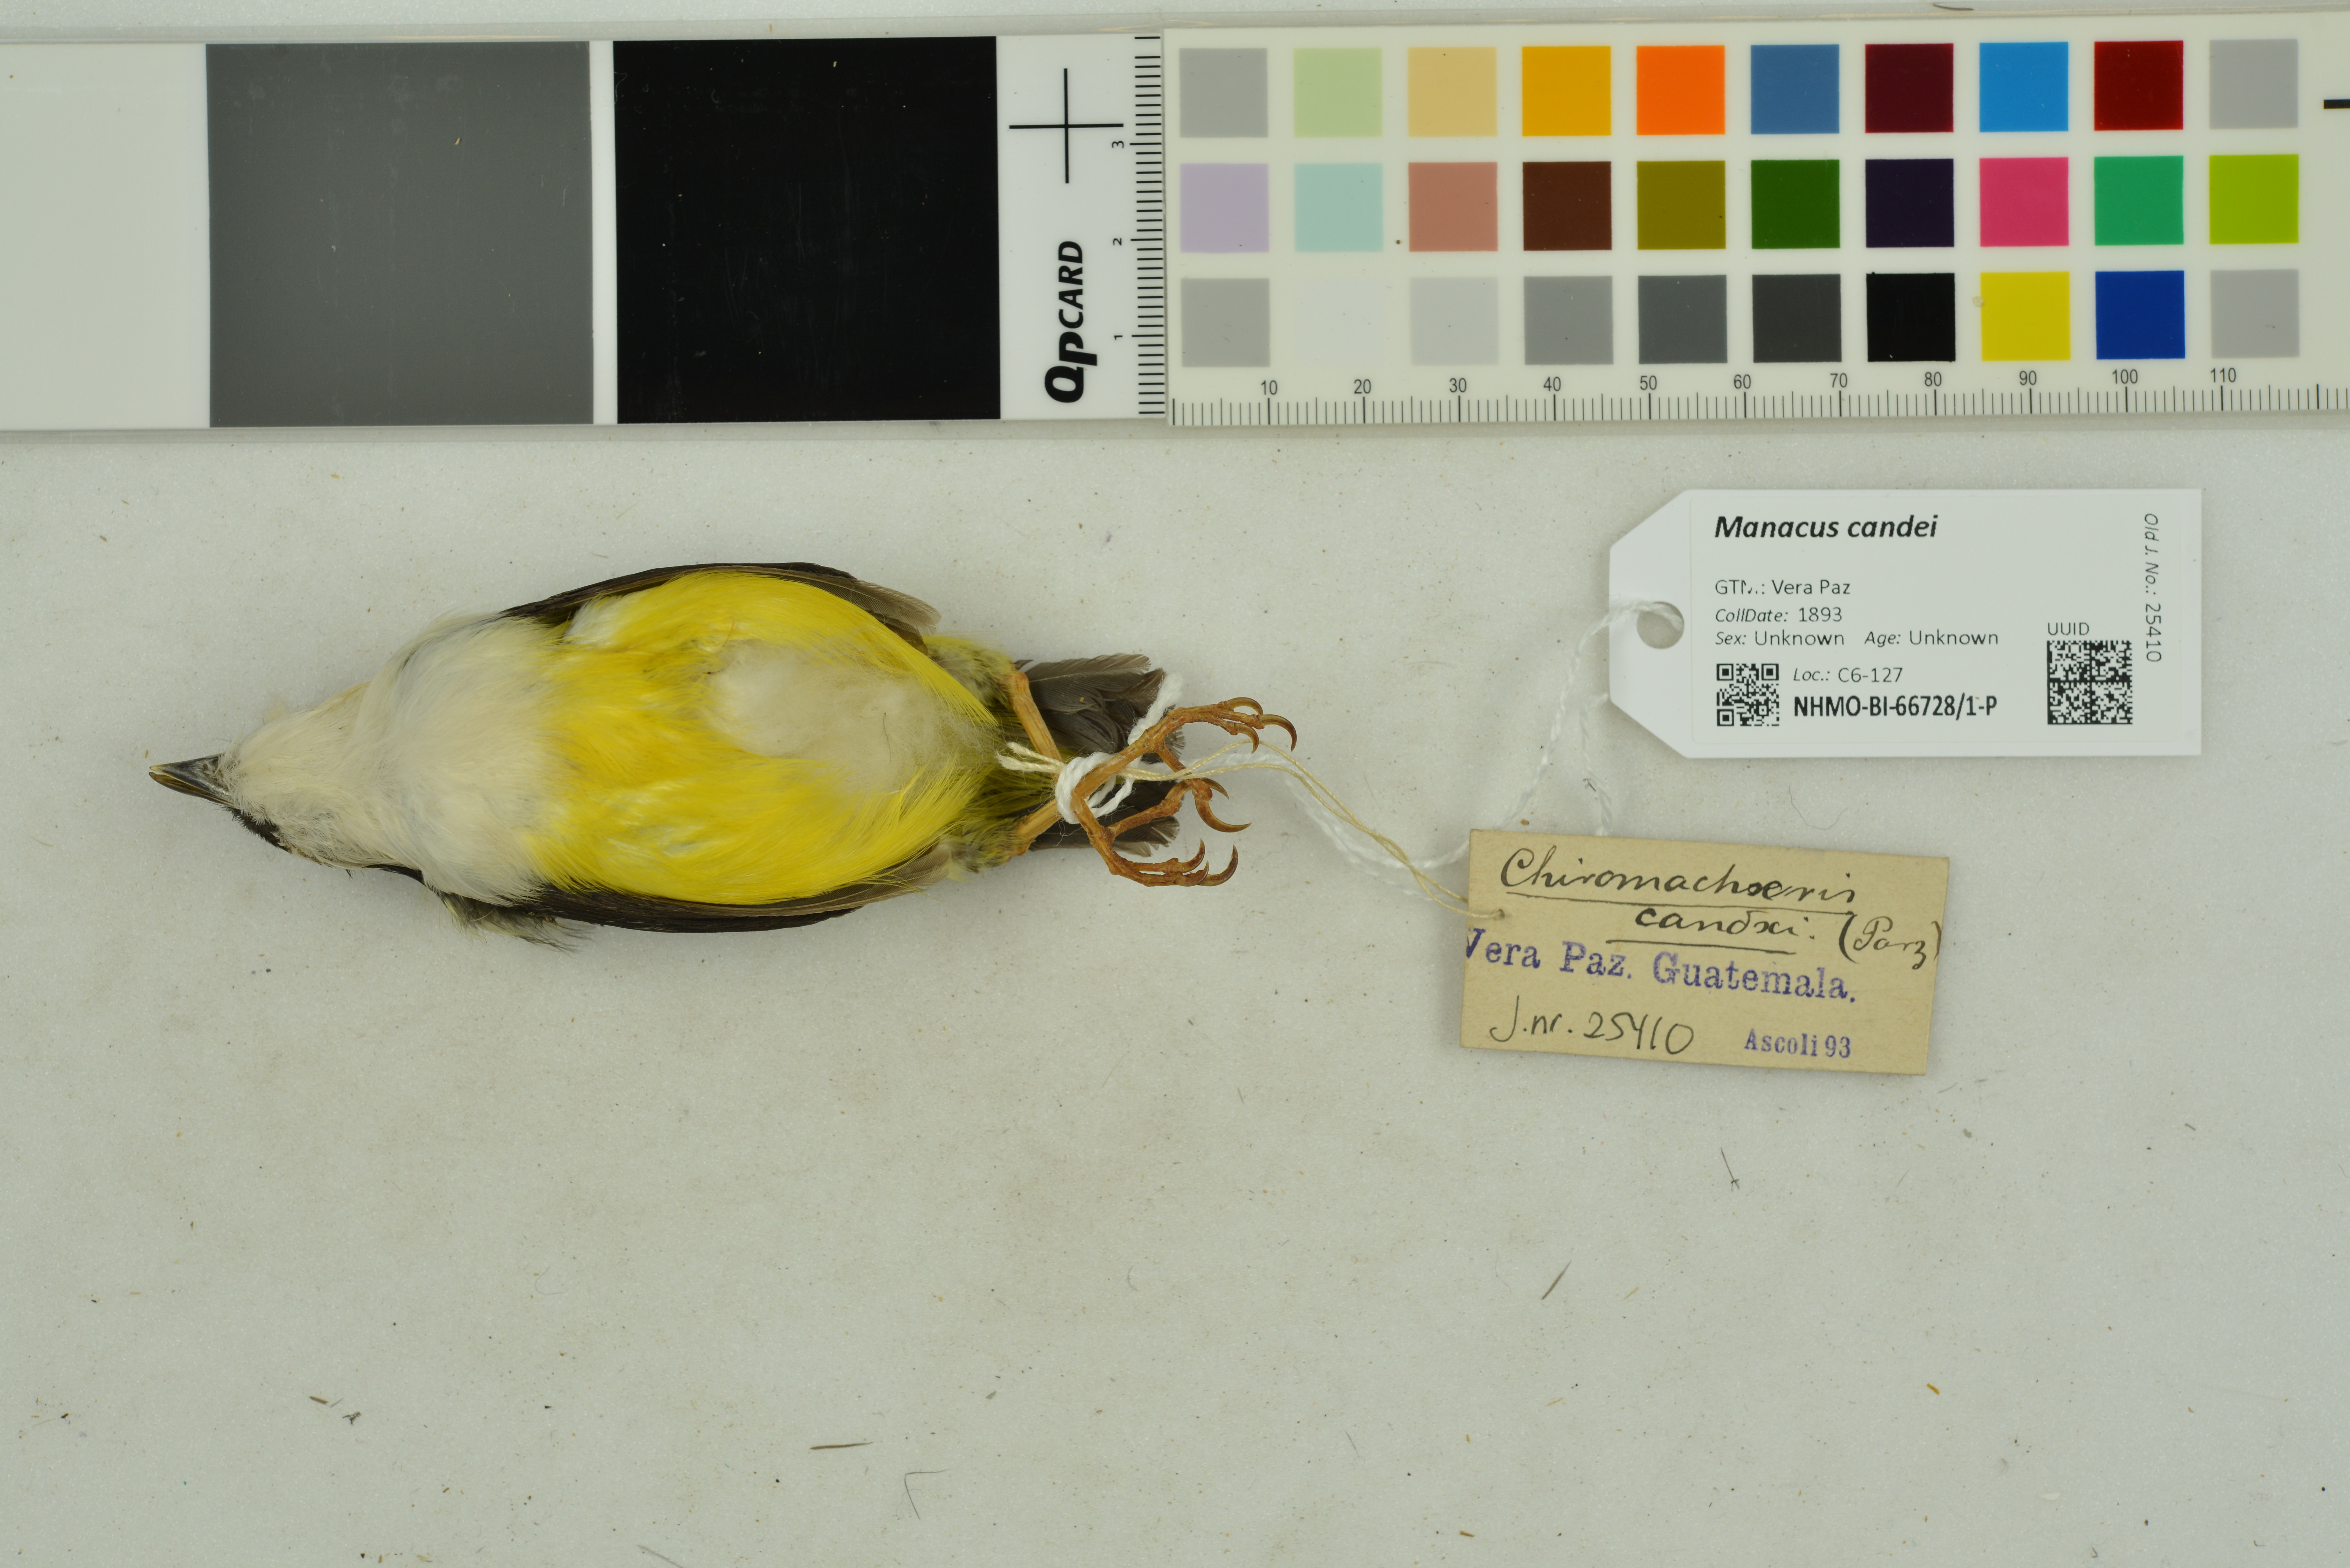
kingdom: Animalia
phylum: Chordata
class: Aves
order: Passeriformes
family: Pipridae
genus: Manacus
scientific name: Manacus candei
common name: White-collared manakin
